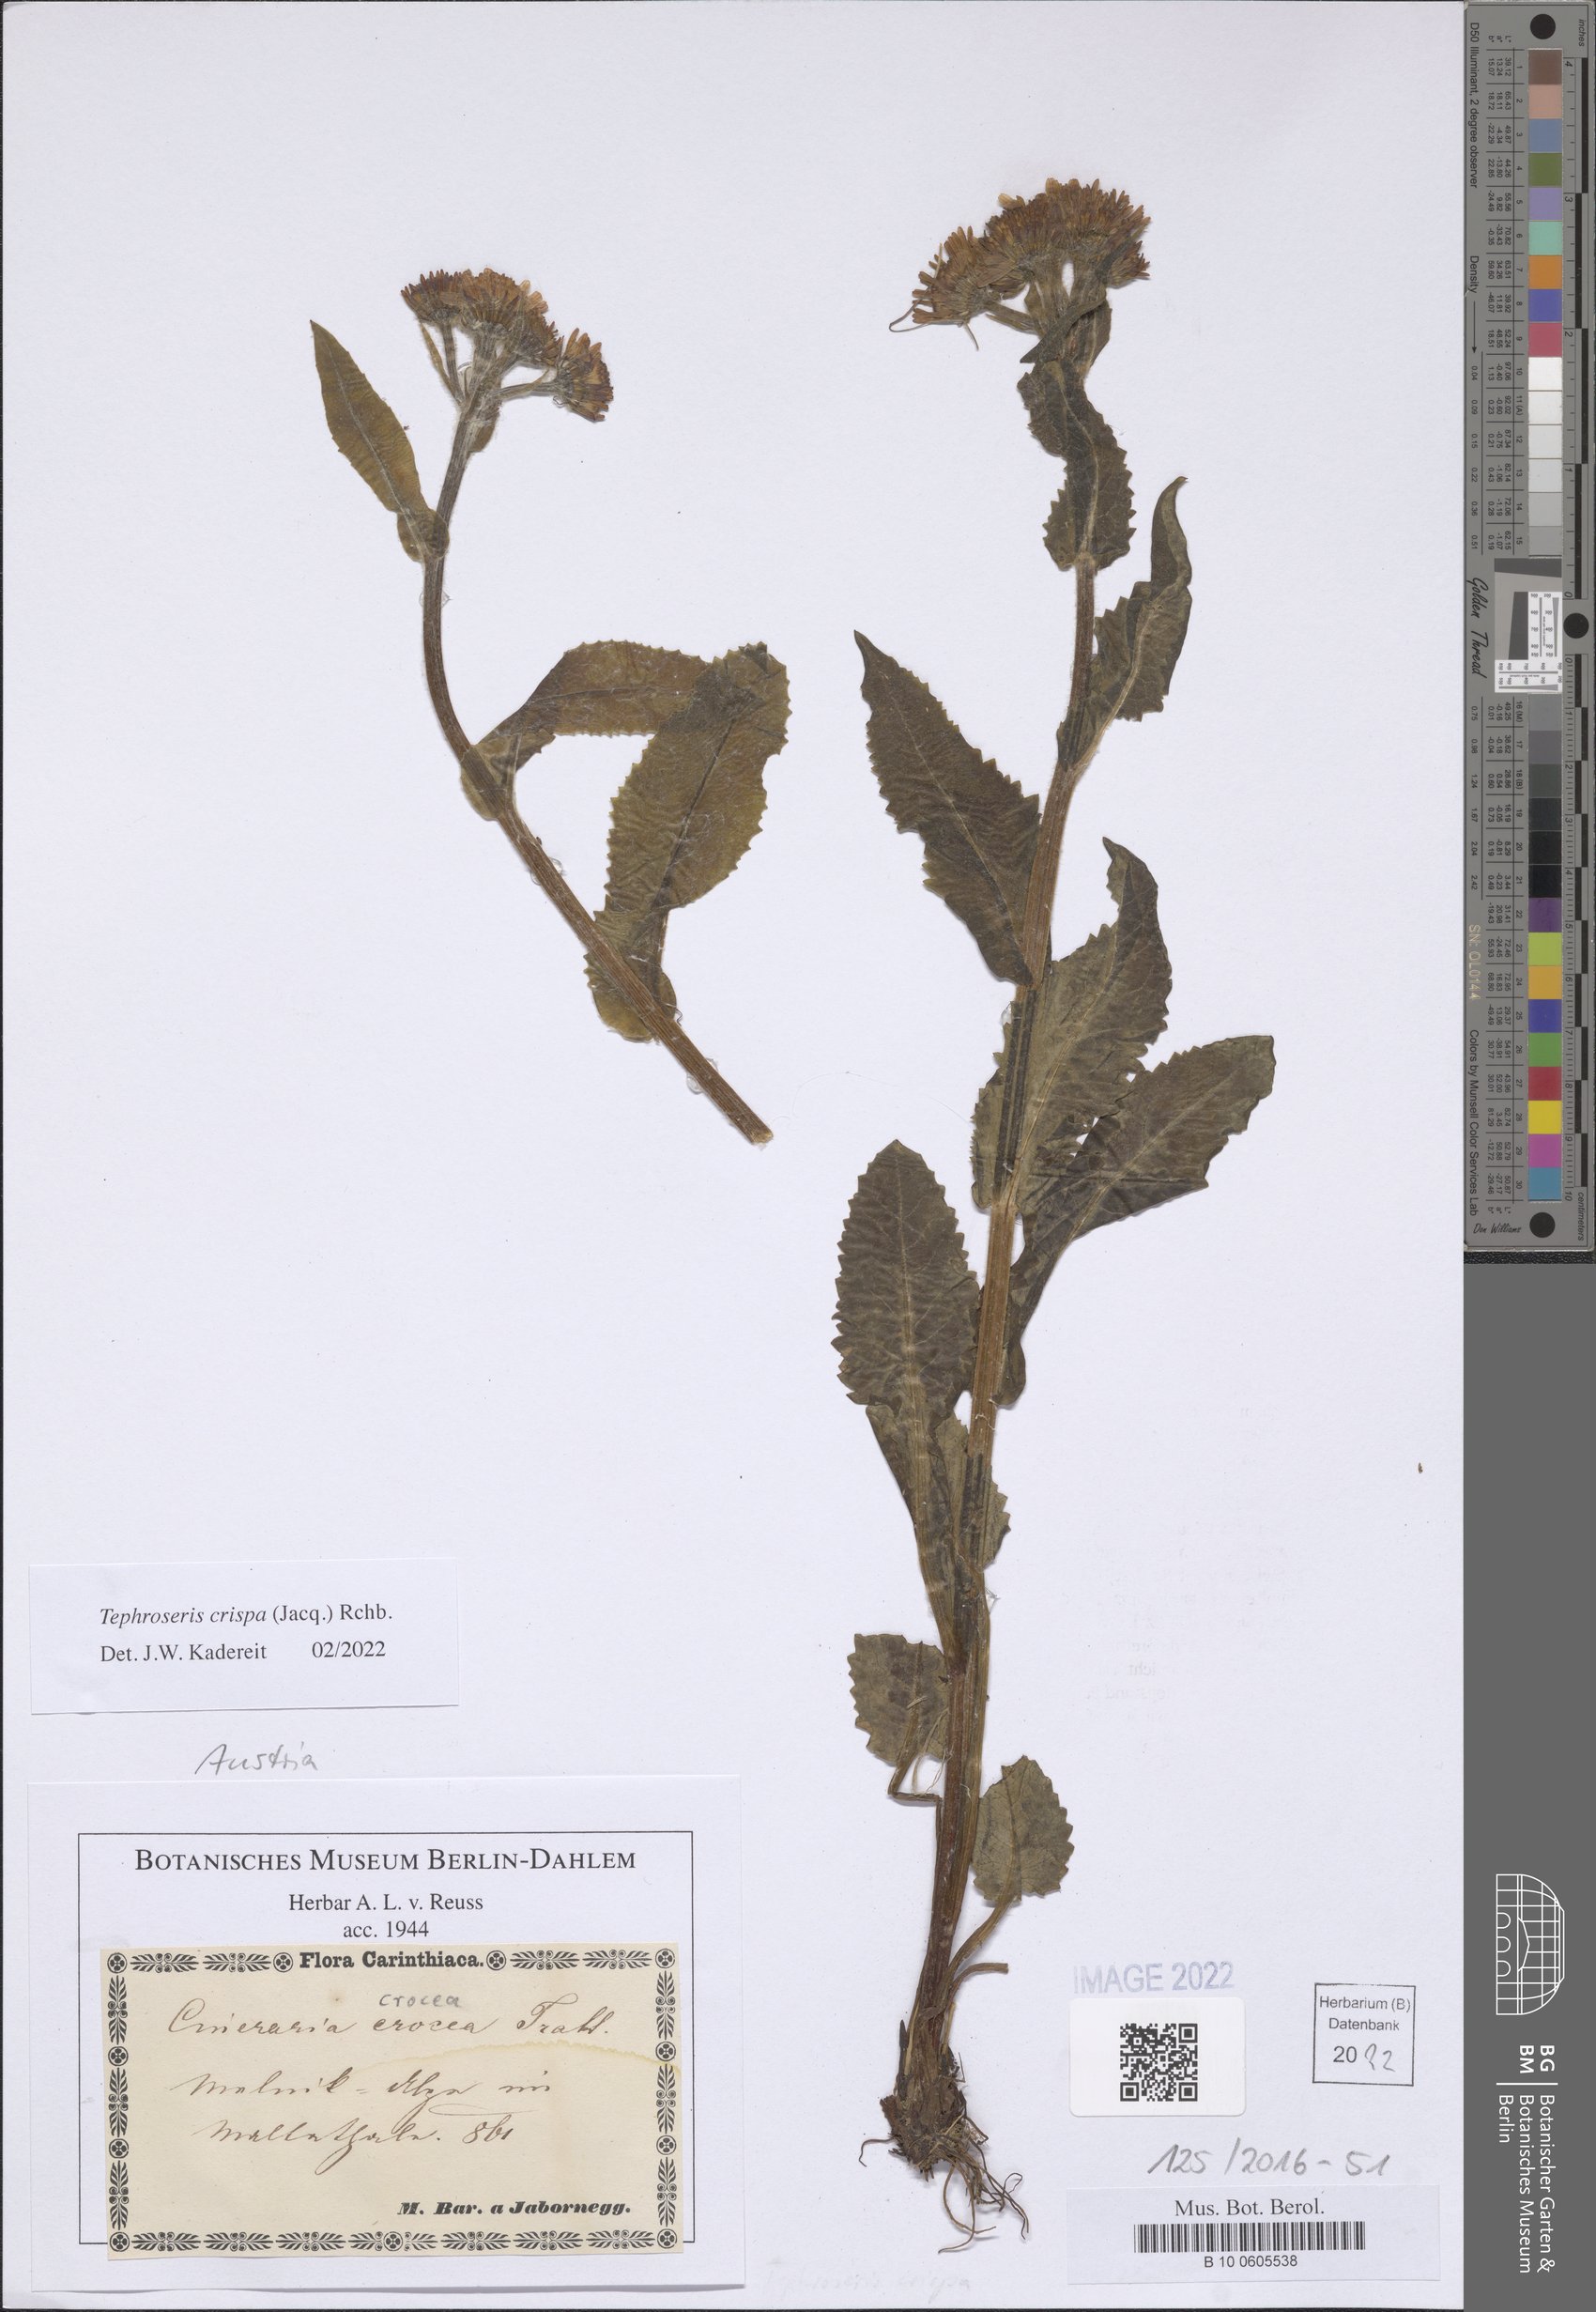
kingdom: Plantae
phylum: Tracheophyta
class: Magnoliopsida
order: Asterales
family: Asteraceae
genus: Tephroseris
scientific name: Tephroseris crispa
